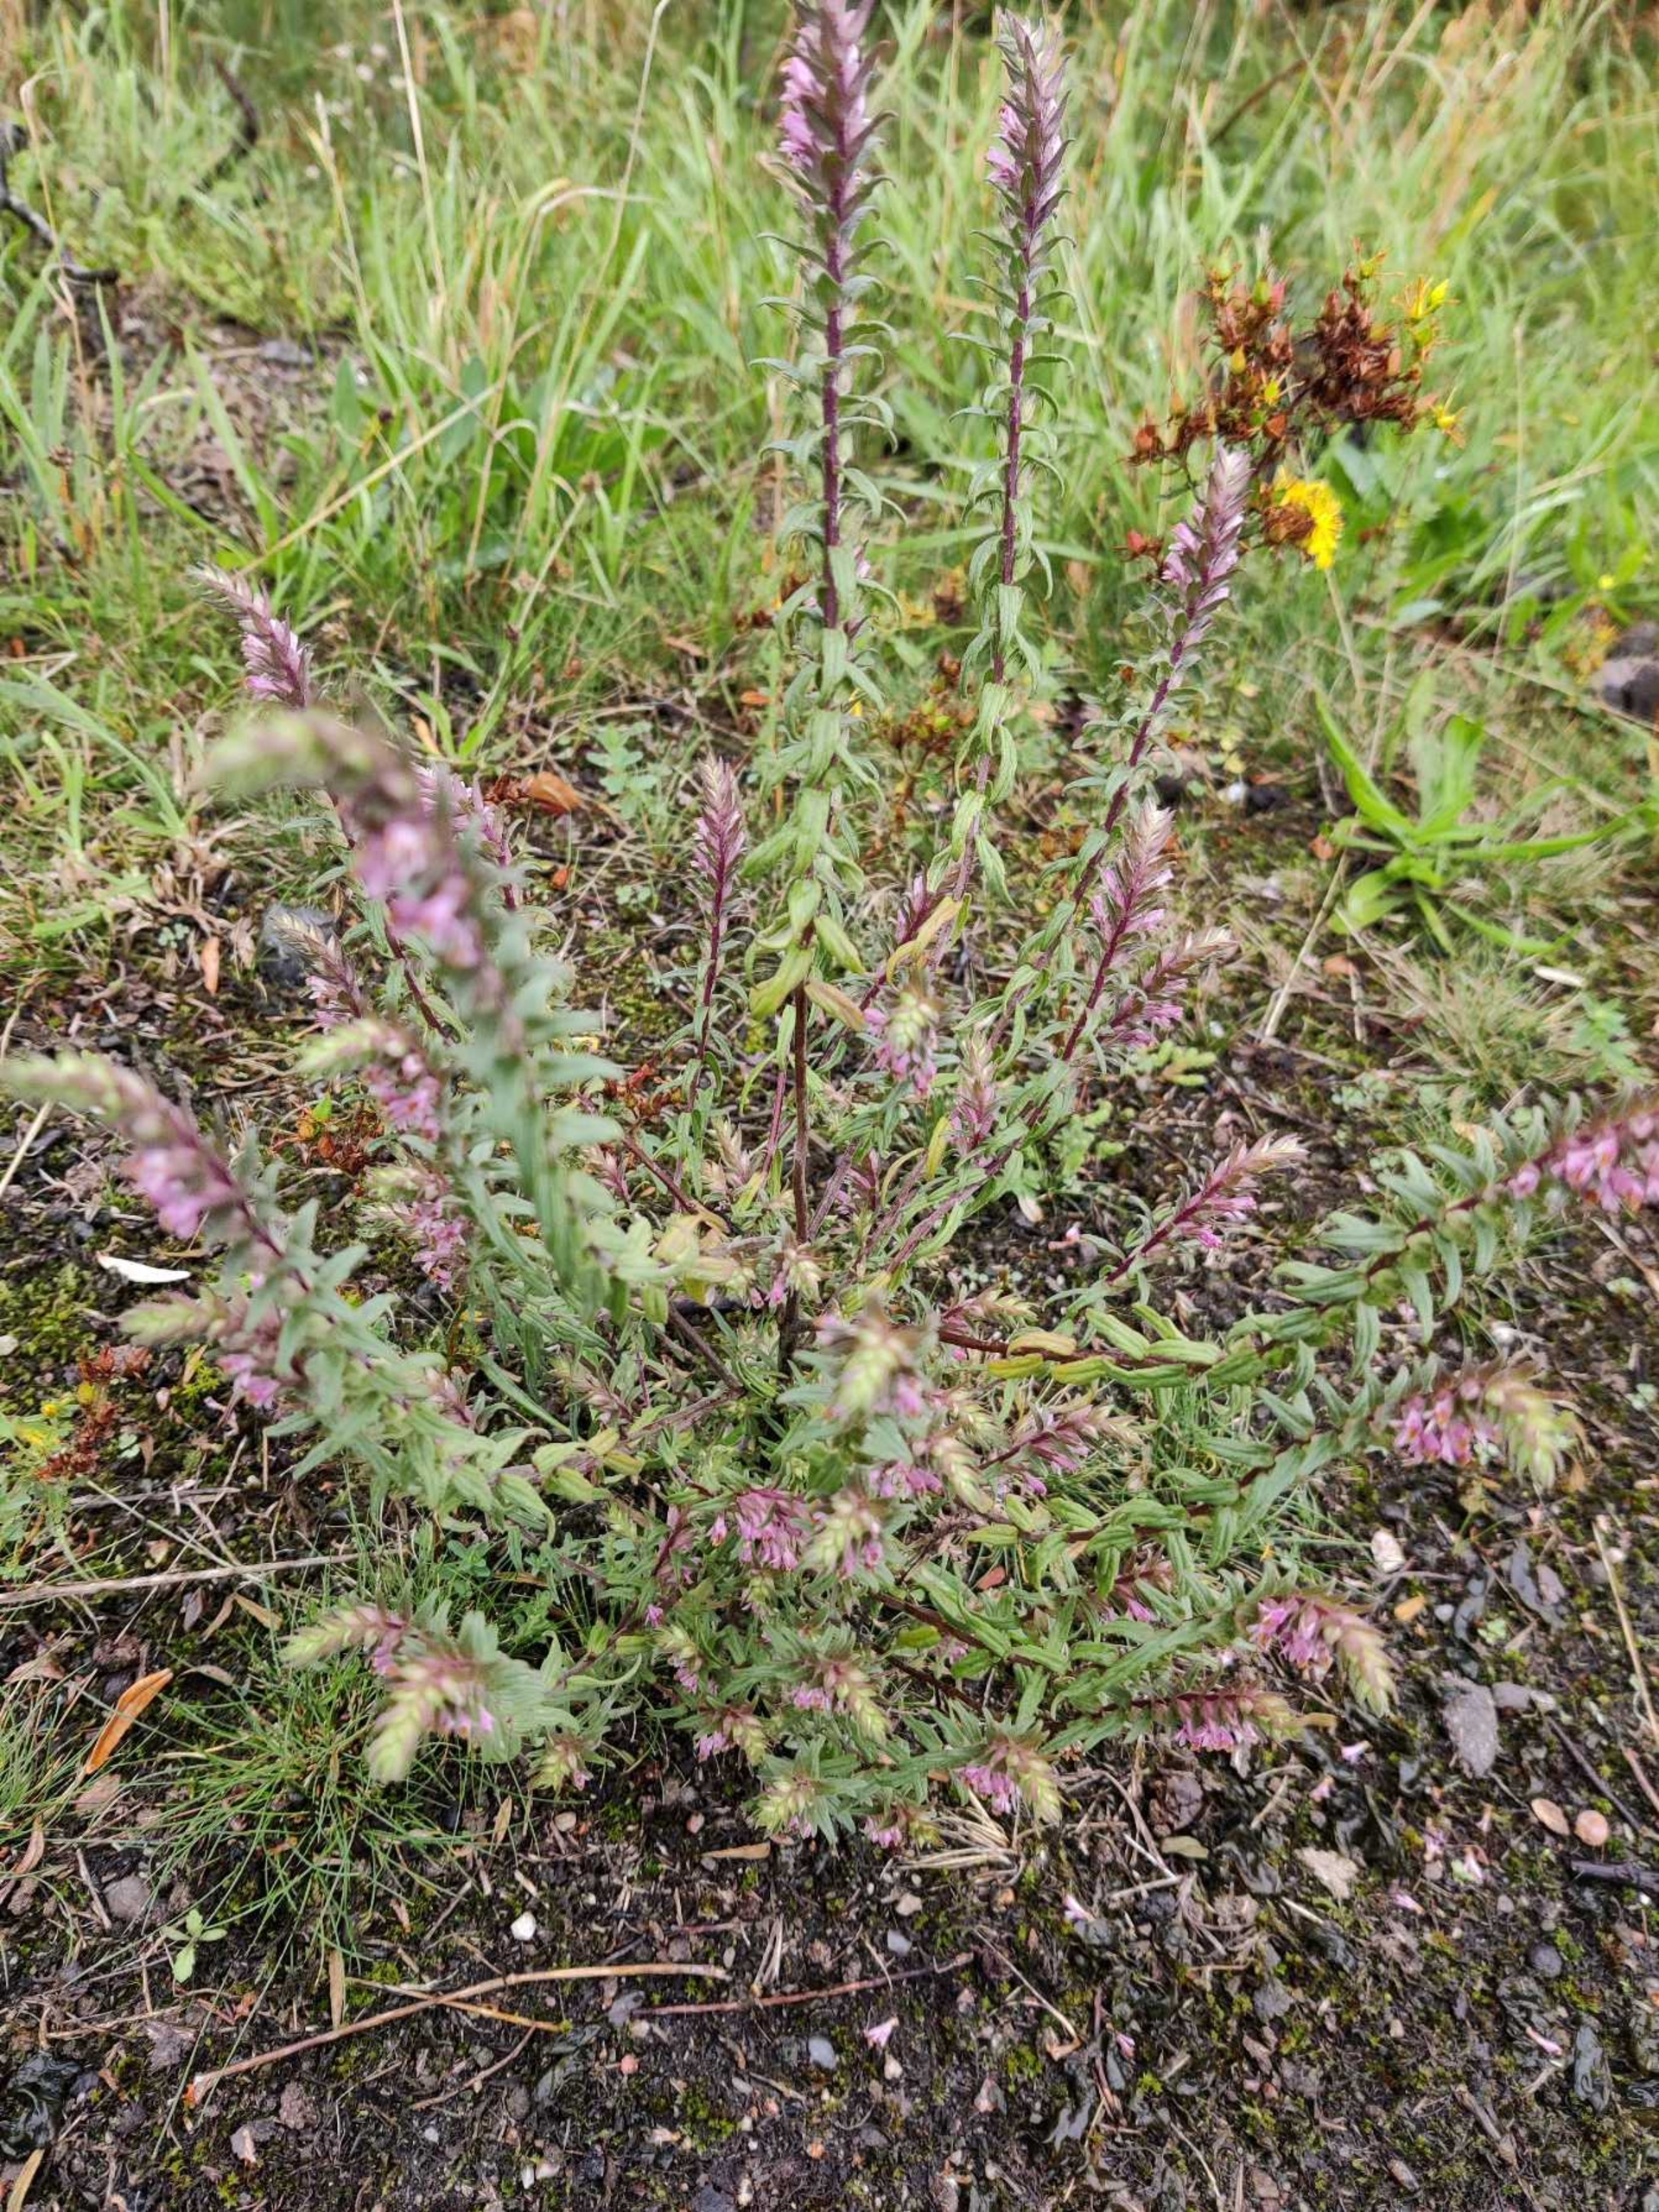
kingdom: Plantae
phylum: Tracheophyta
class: Magnoliopsida
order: Lamiales
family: Orobanchaceae
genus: Odontites
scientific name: Odontites vulgaris
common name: Høst-rødtop
